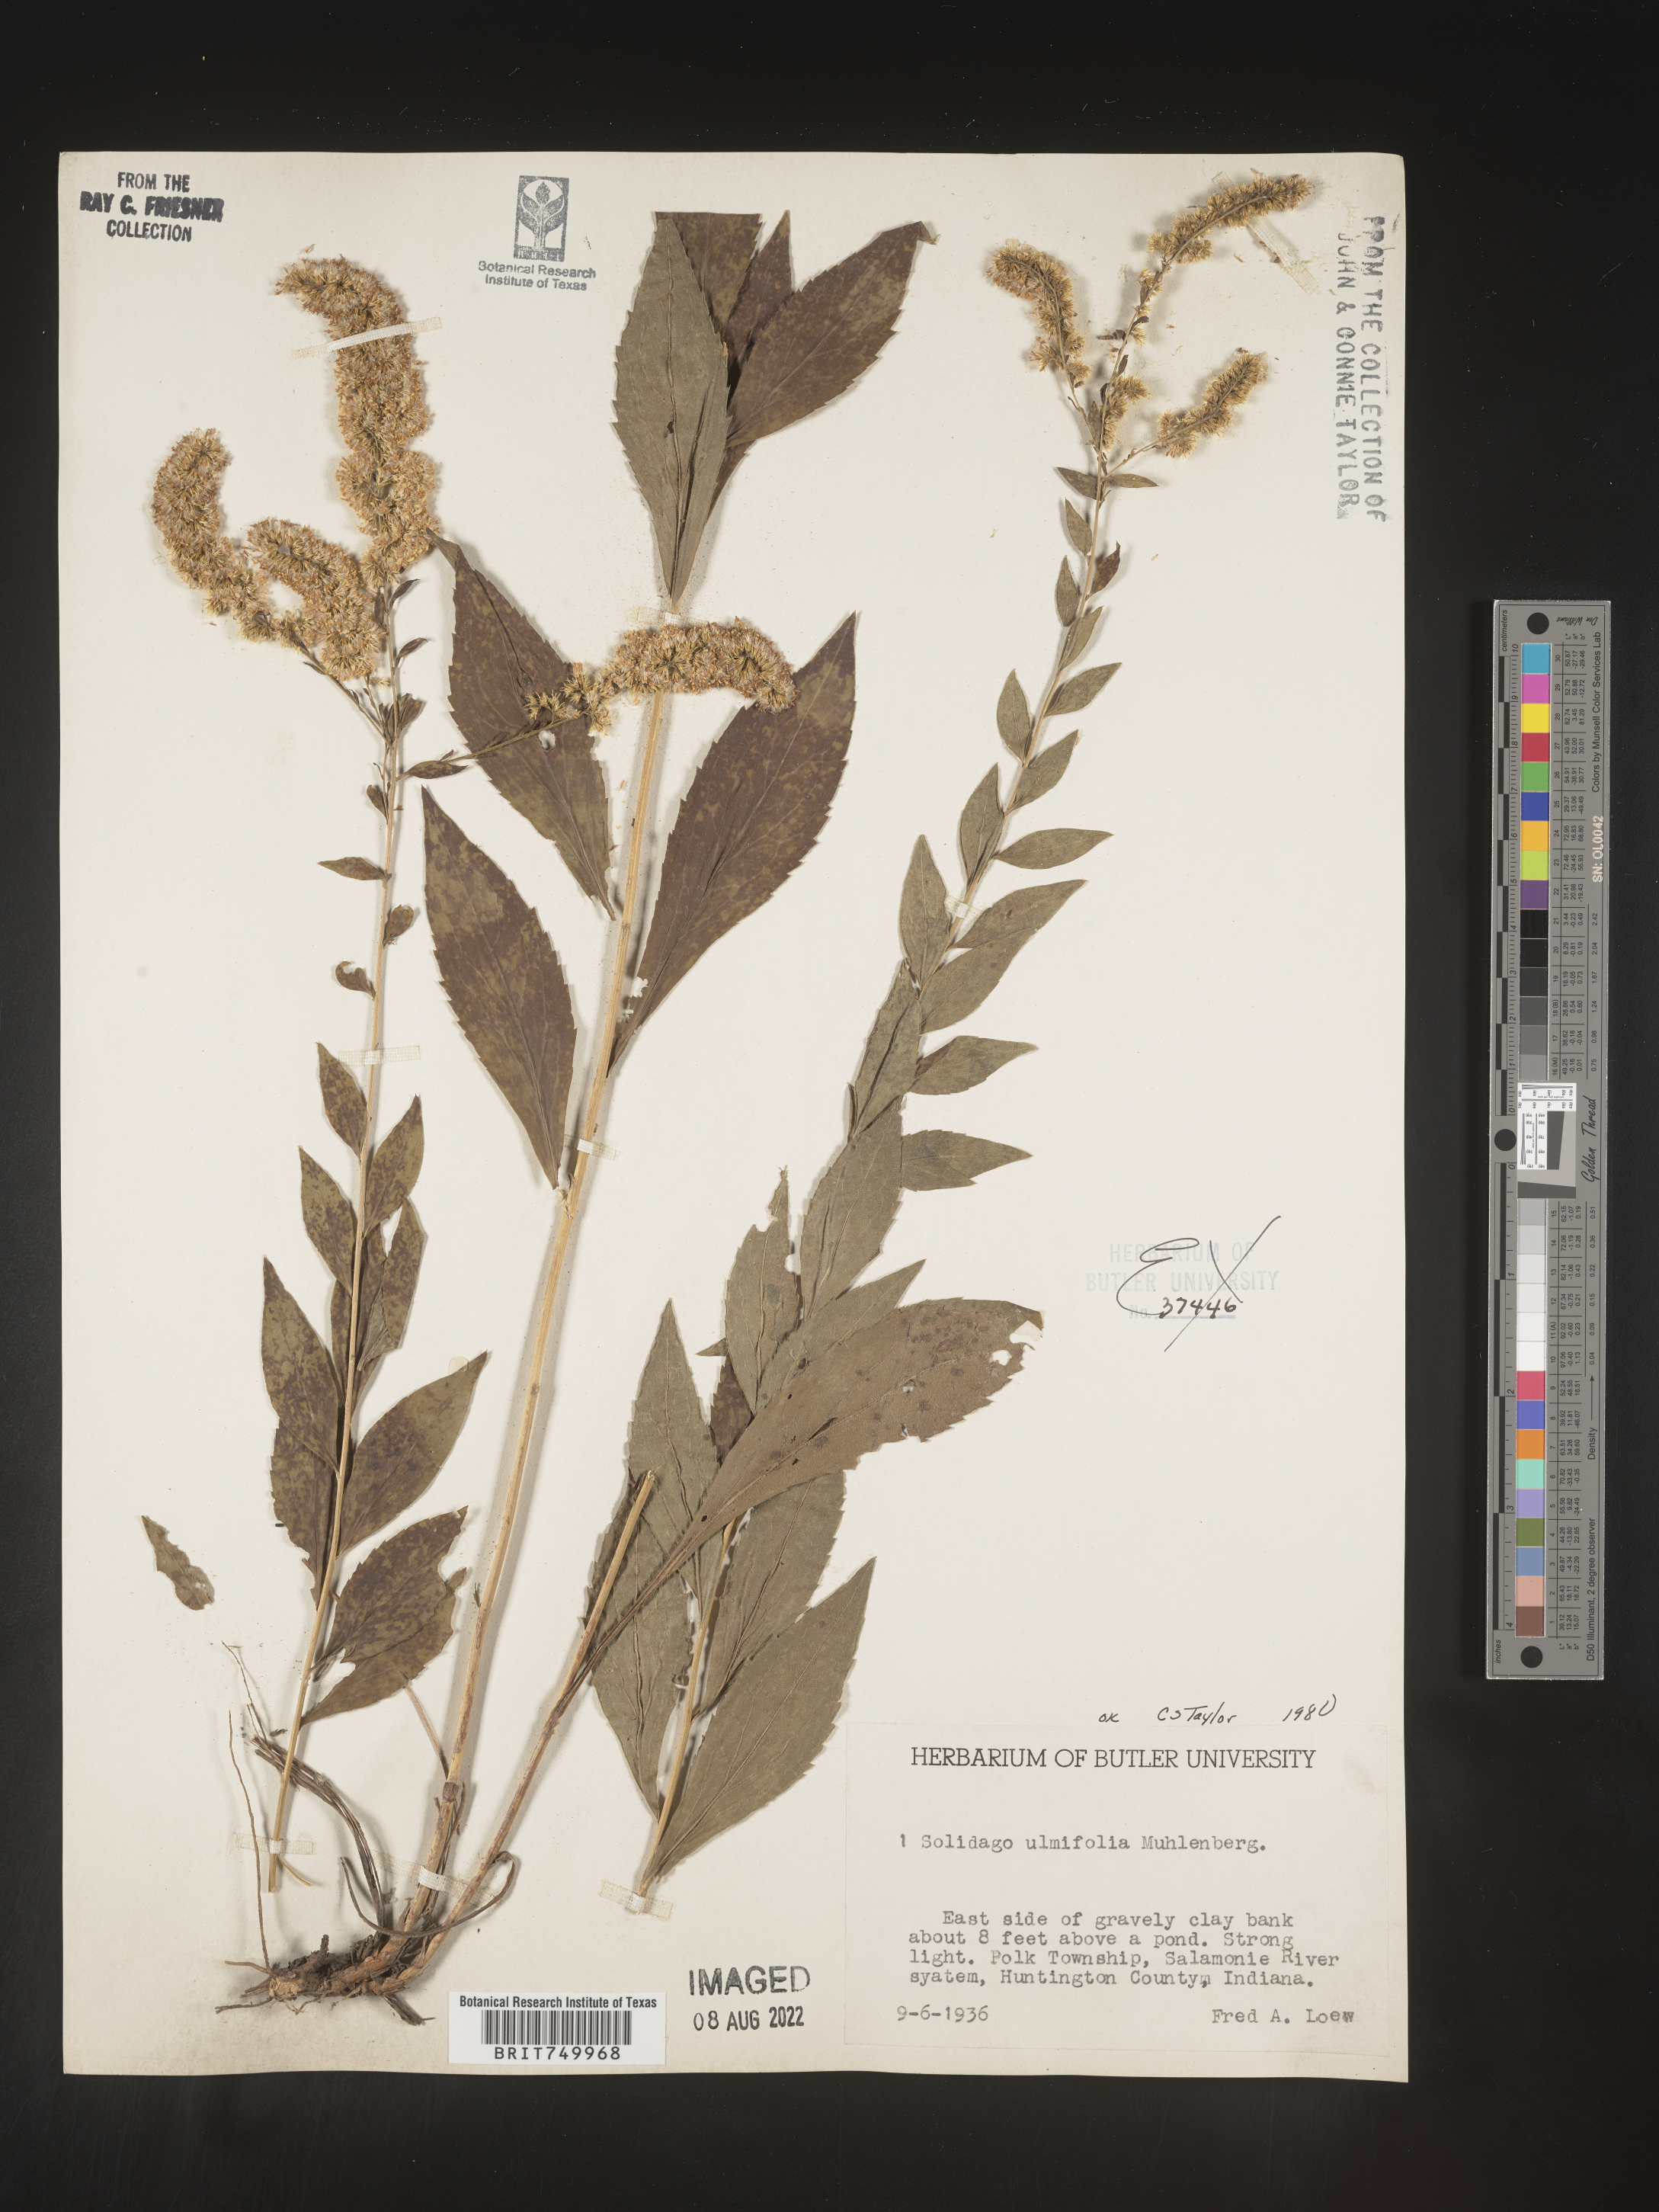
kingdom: Plantae
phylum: Tracheophyta
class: Magnoliopsida
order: Asterales
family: Asteraceae
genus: Solidago
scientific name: Solidago ulmifolia
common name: Elm-leaf goldenrod
